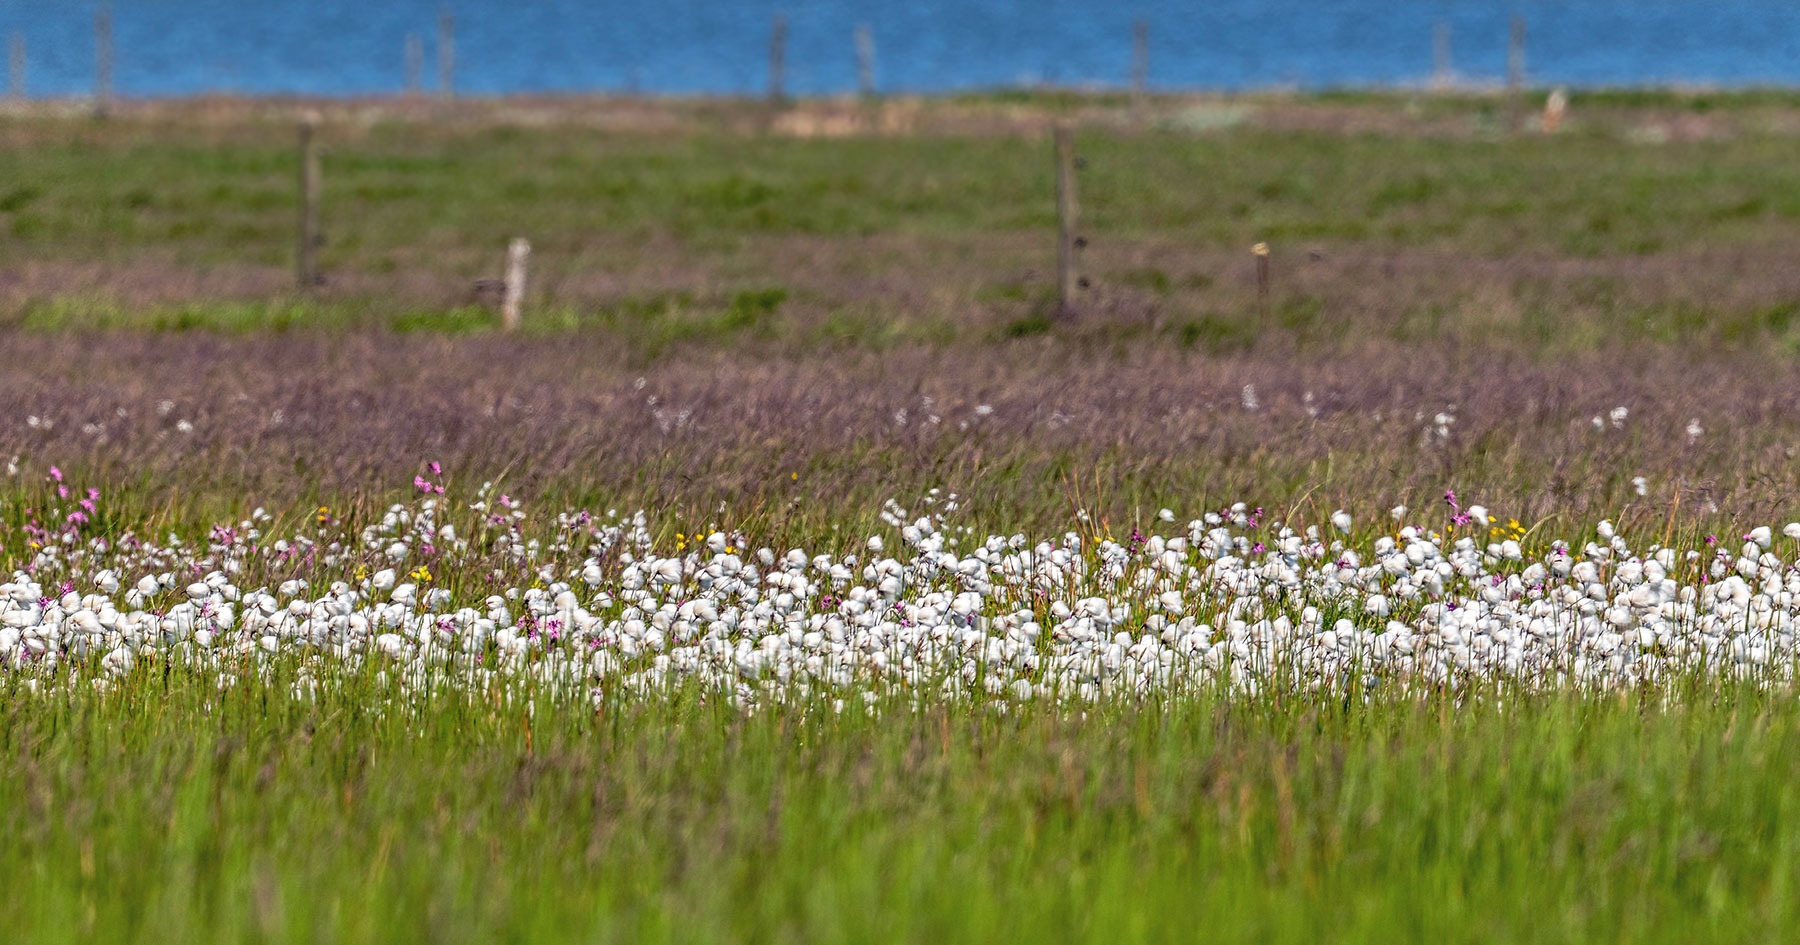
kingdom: Plantae
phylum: Tracheophyta
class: Liliopsida
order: Poales
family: Cyperaceae
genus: Eriophorum
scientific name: Eriophorum angustifolium
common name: Smalbladet kæruld
